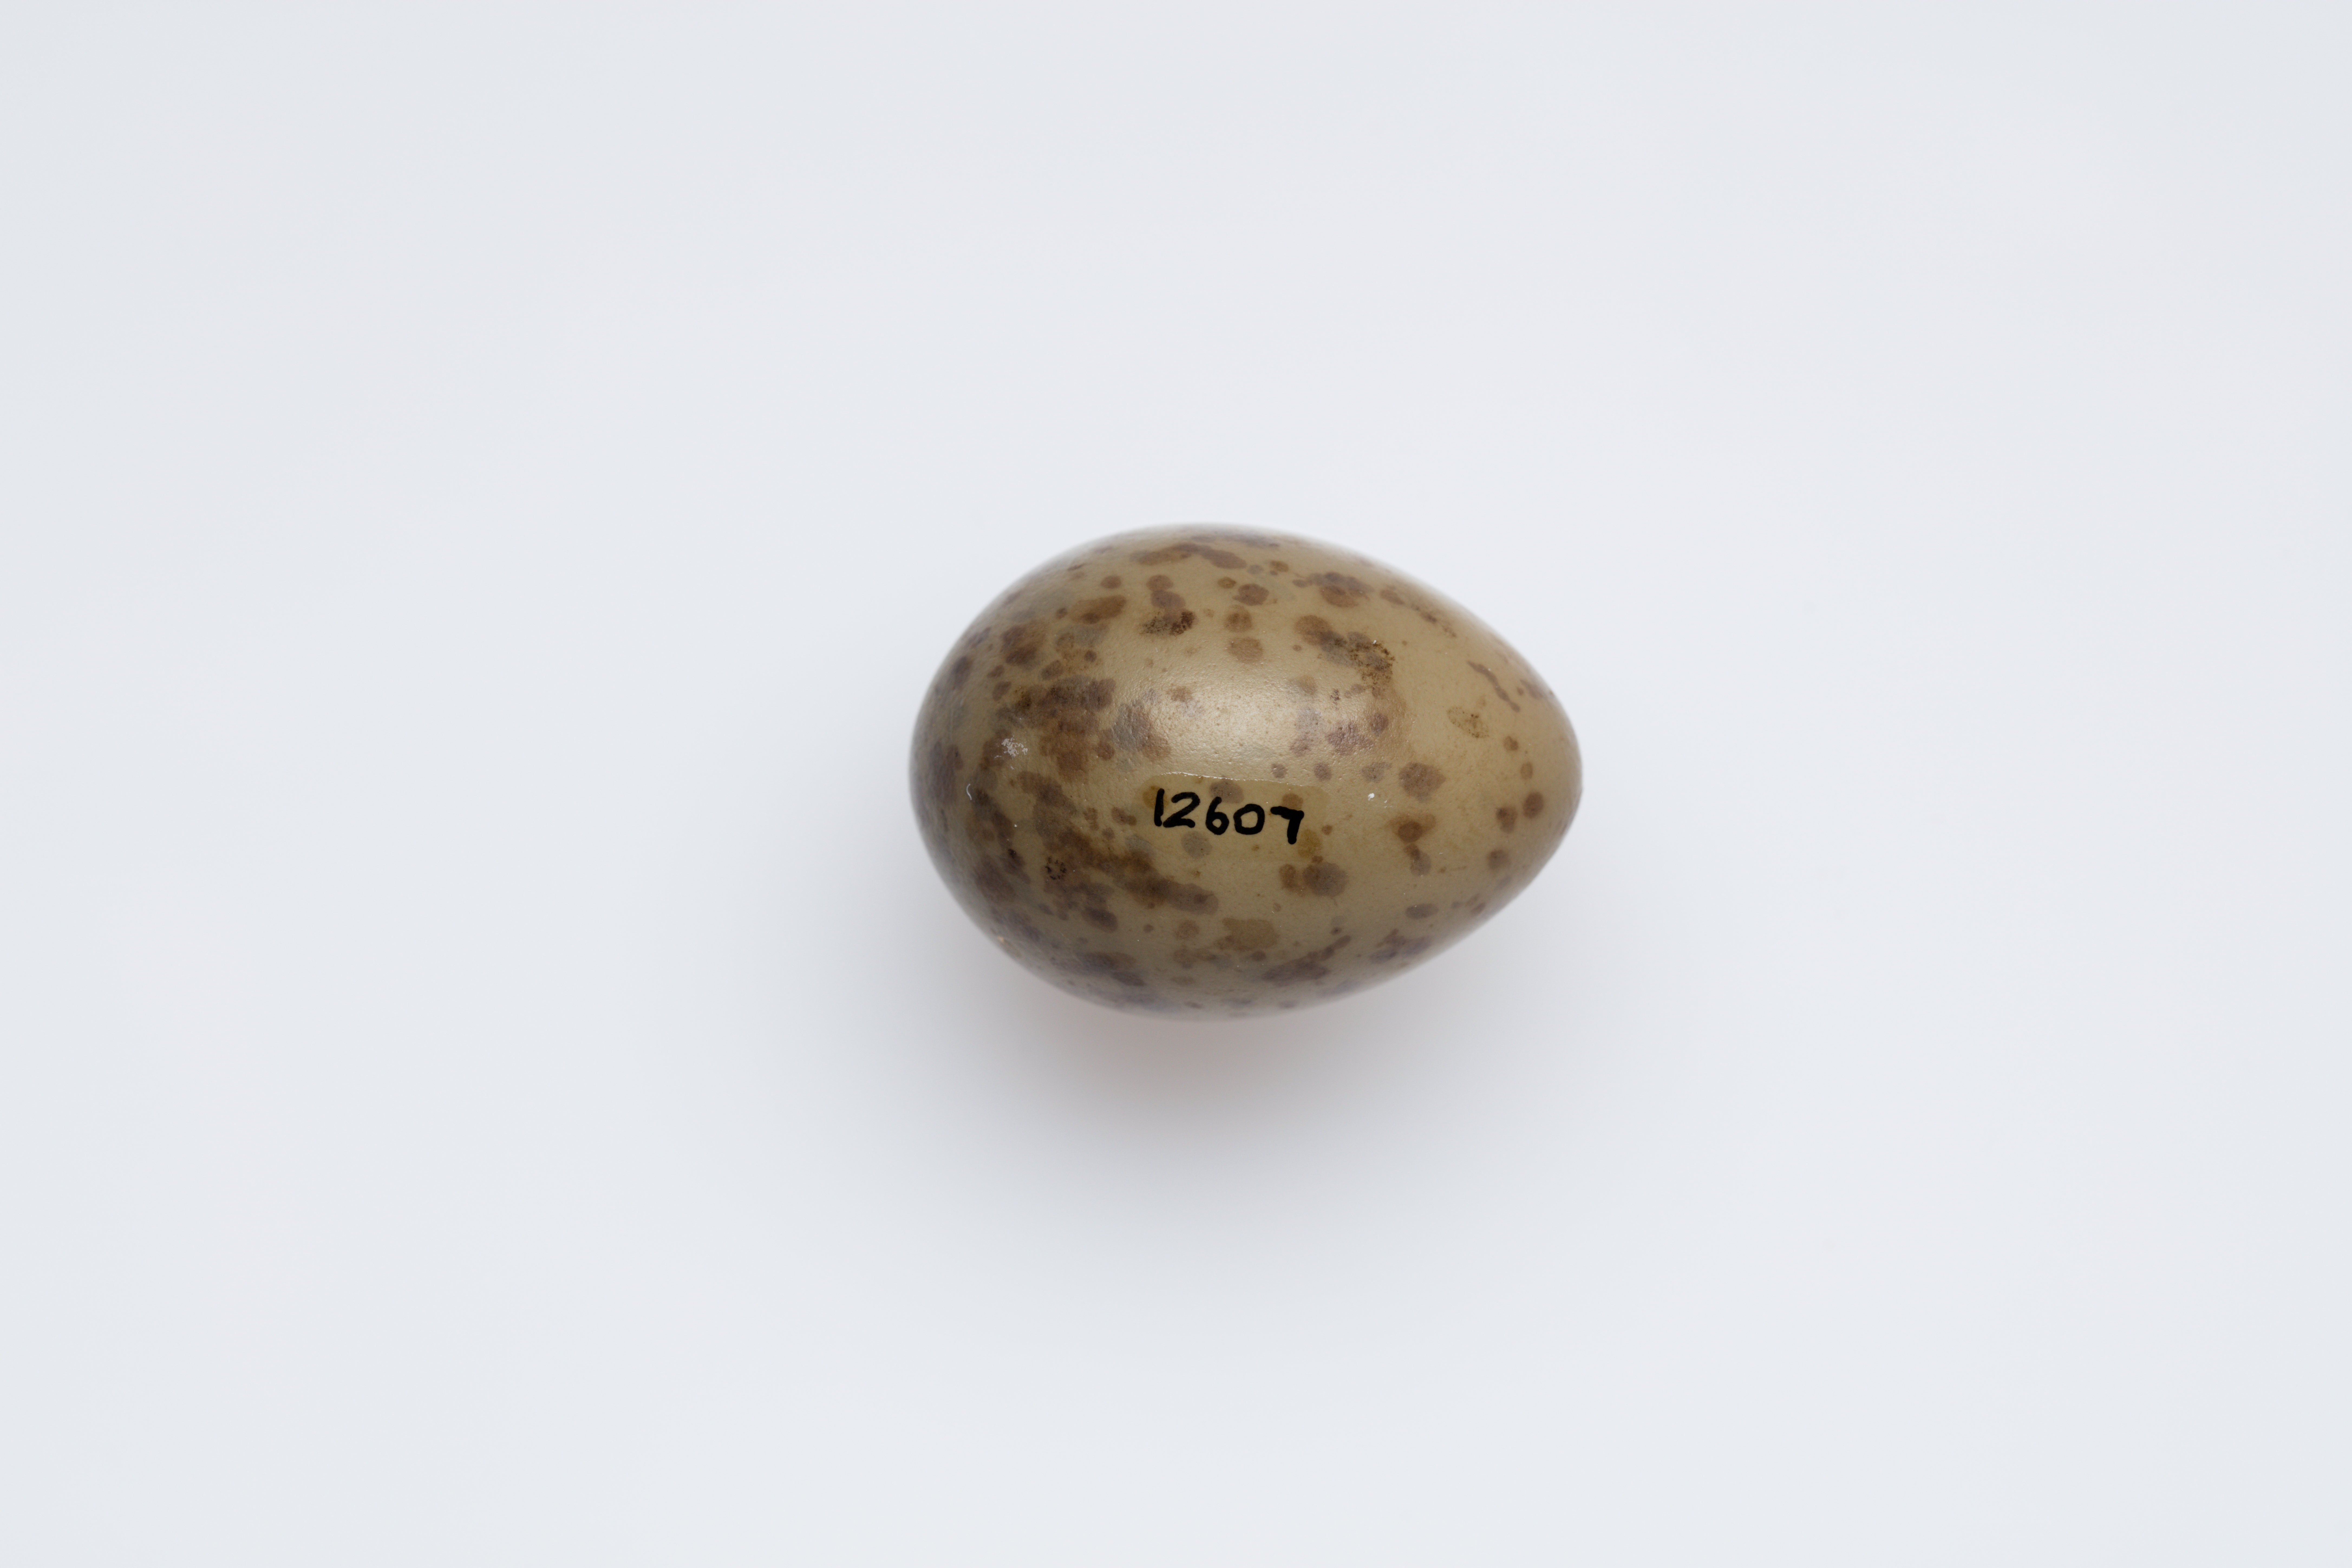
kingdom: Animalia
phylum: Chordata
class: Aves
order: Passeriformes
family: Campephagidae
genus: Coracina
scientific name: Coracina papuensis
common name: White-bellied cuckooshrike
